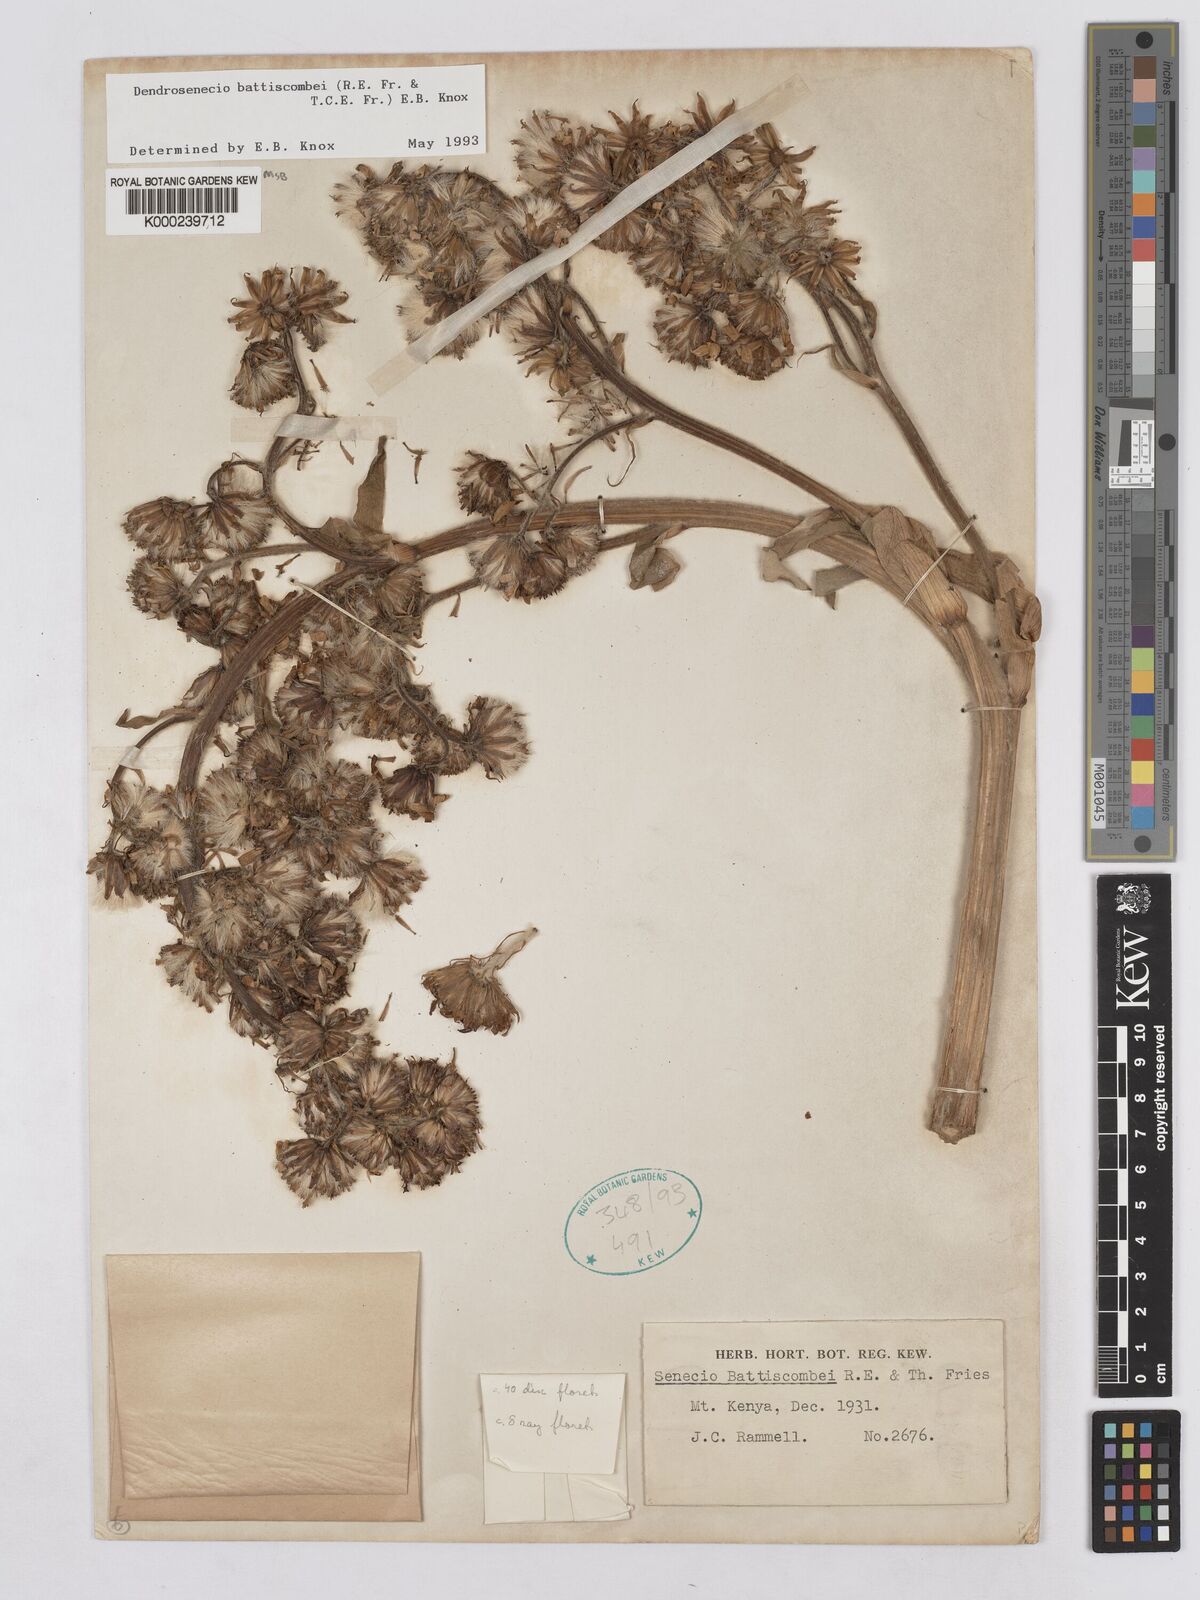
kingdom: Plantae
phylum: Tracheophyta
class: Magnoliopsida
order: Asterales
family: Asteraceae
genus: Dendrosenecio
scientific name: Dendrosenecio battiscombei
